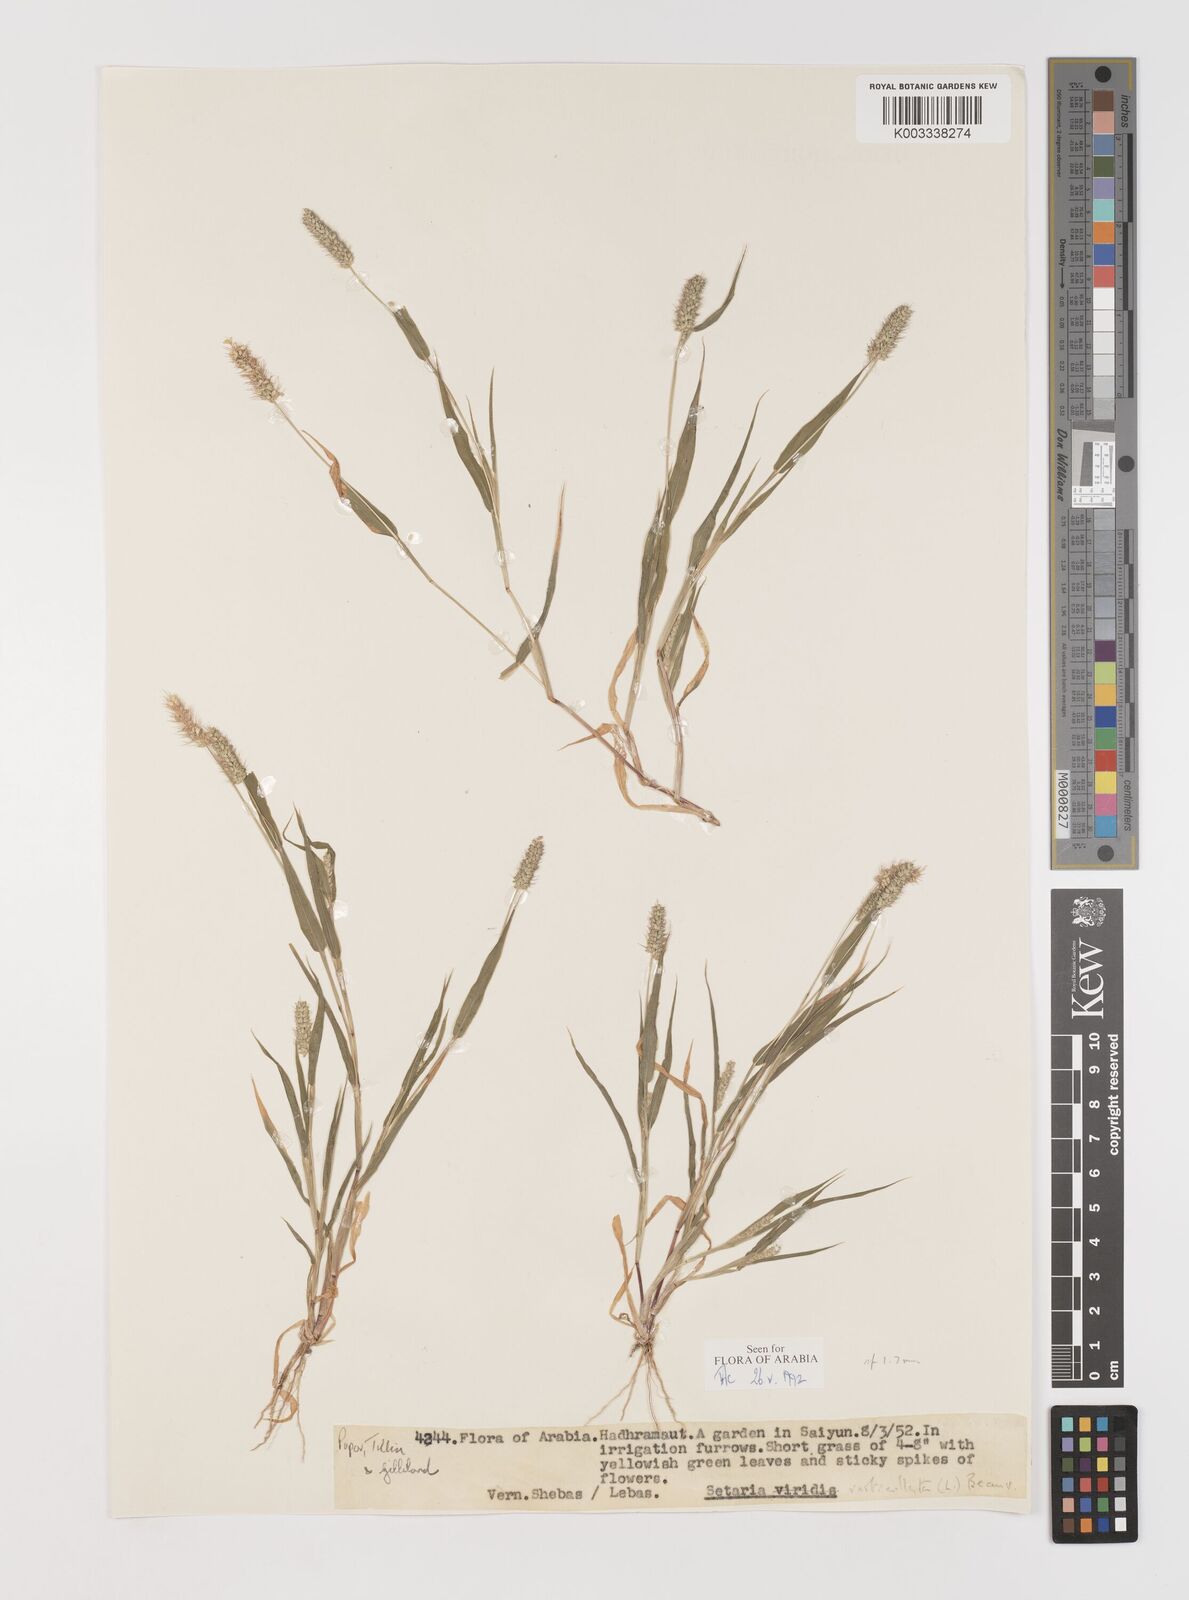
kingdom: Plantae
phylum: Tracheophyta
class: Liliopsida
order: Poales
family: Poaceae
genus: Setaria
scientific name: Setaria verticillata
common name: Hooked bristlegrass
